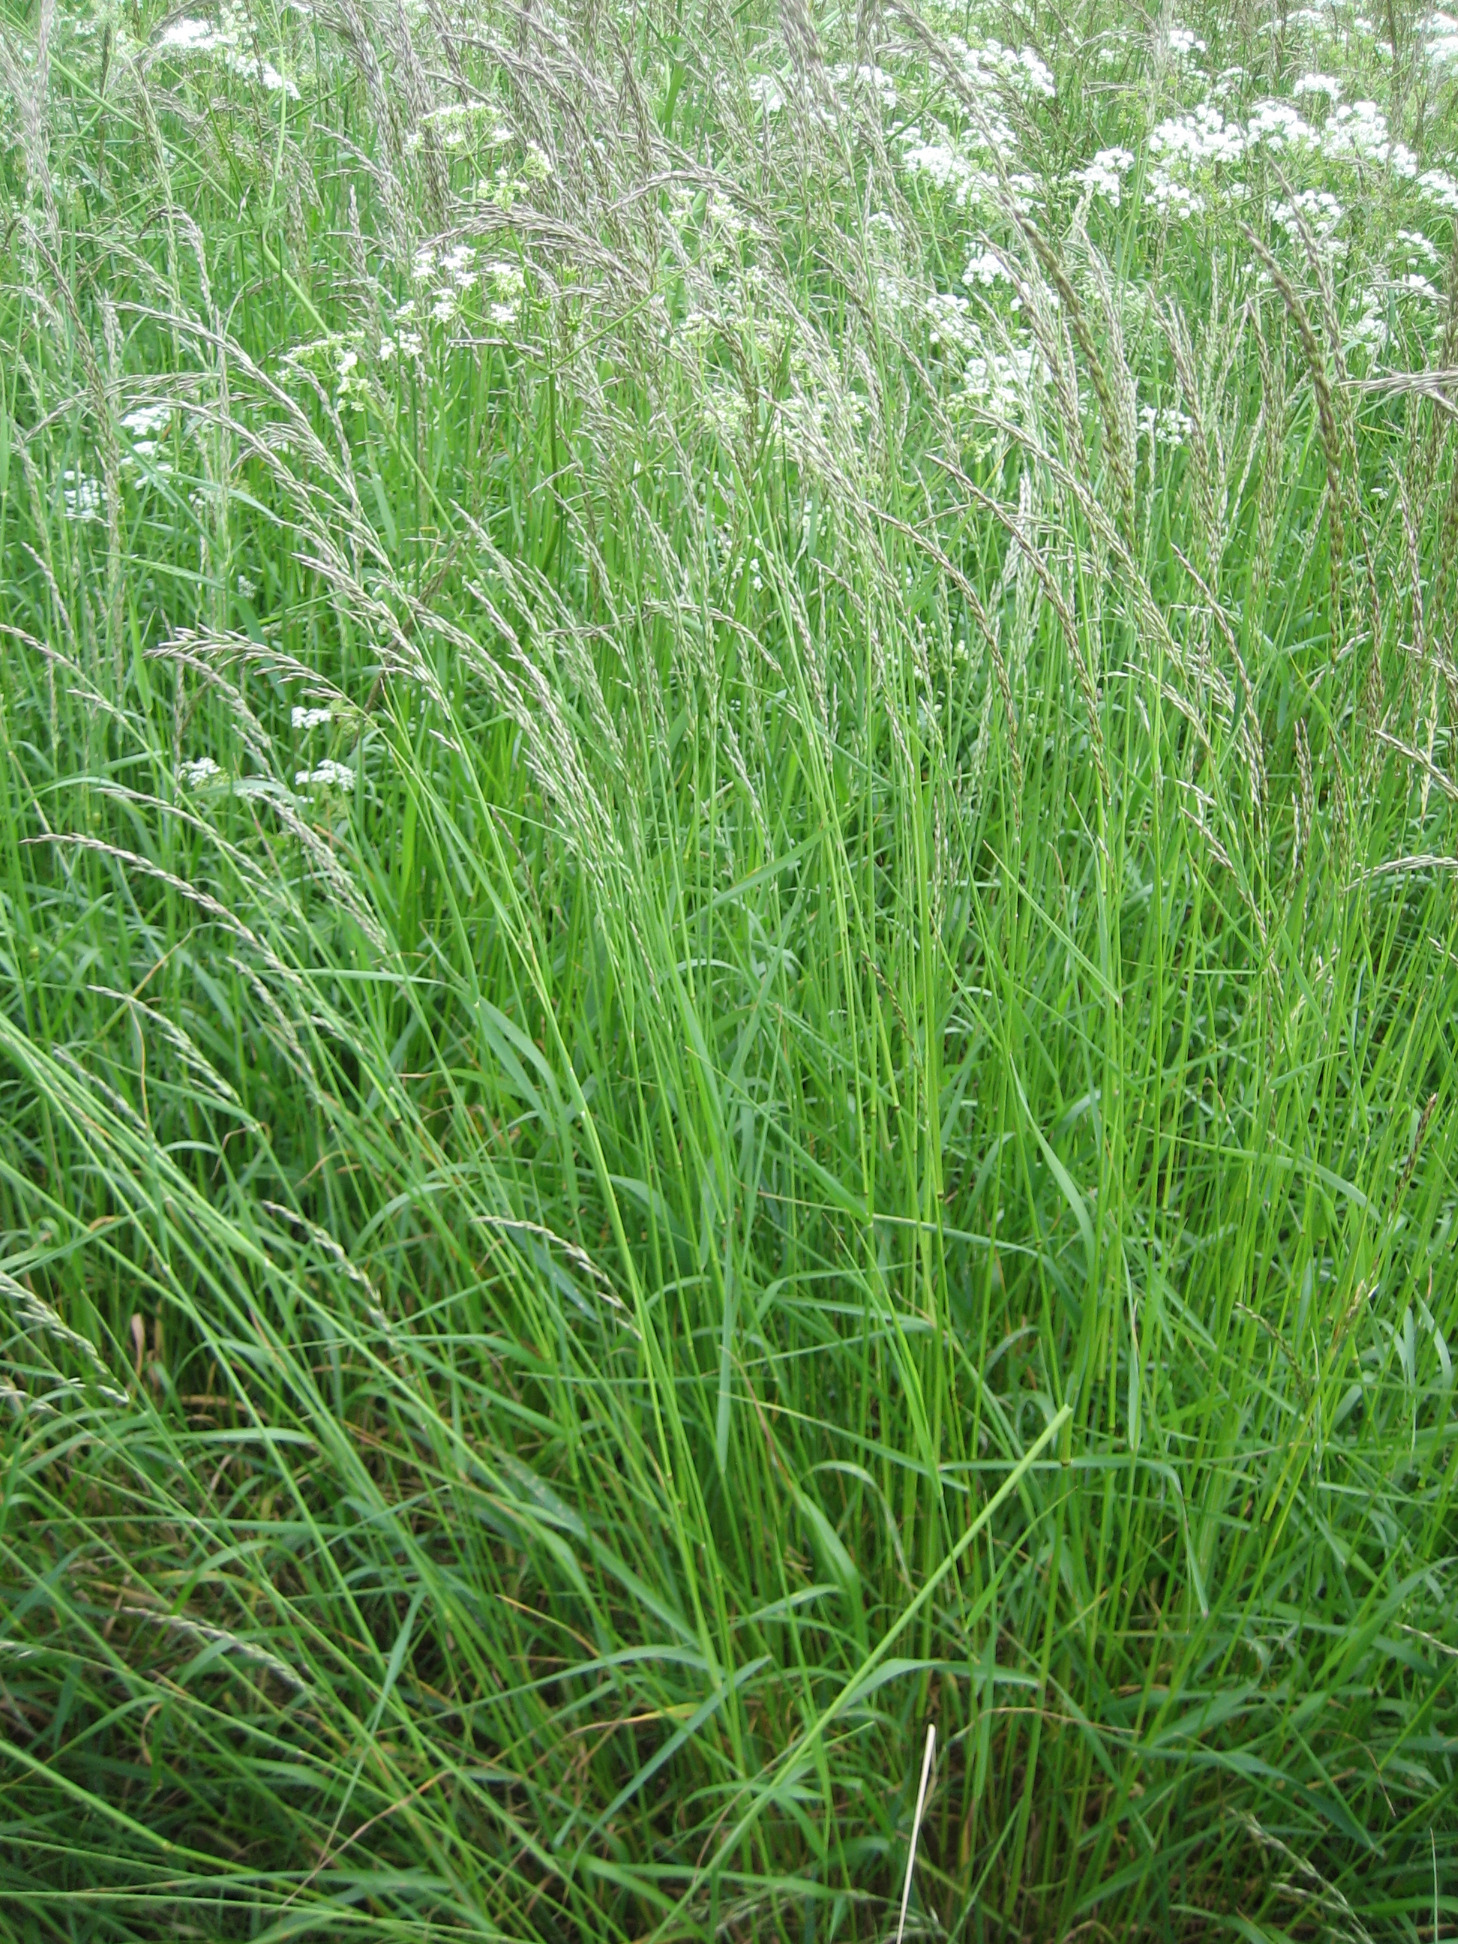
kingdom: Plantae
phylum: Tracheophyta
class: Liliopsida
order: Poales
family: Poaceae
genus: Arrhenatherum
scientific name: Arrhenatherum elatius
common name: Draphavre
